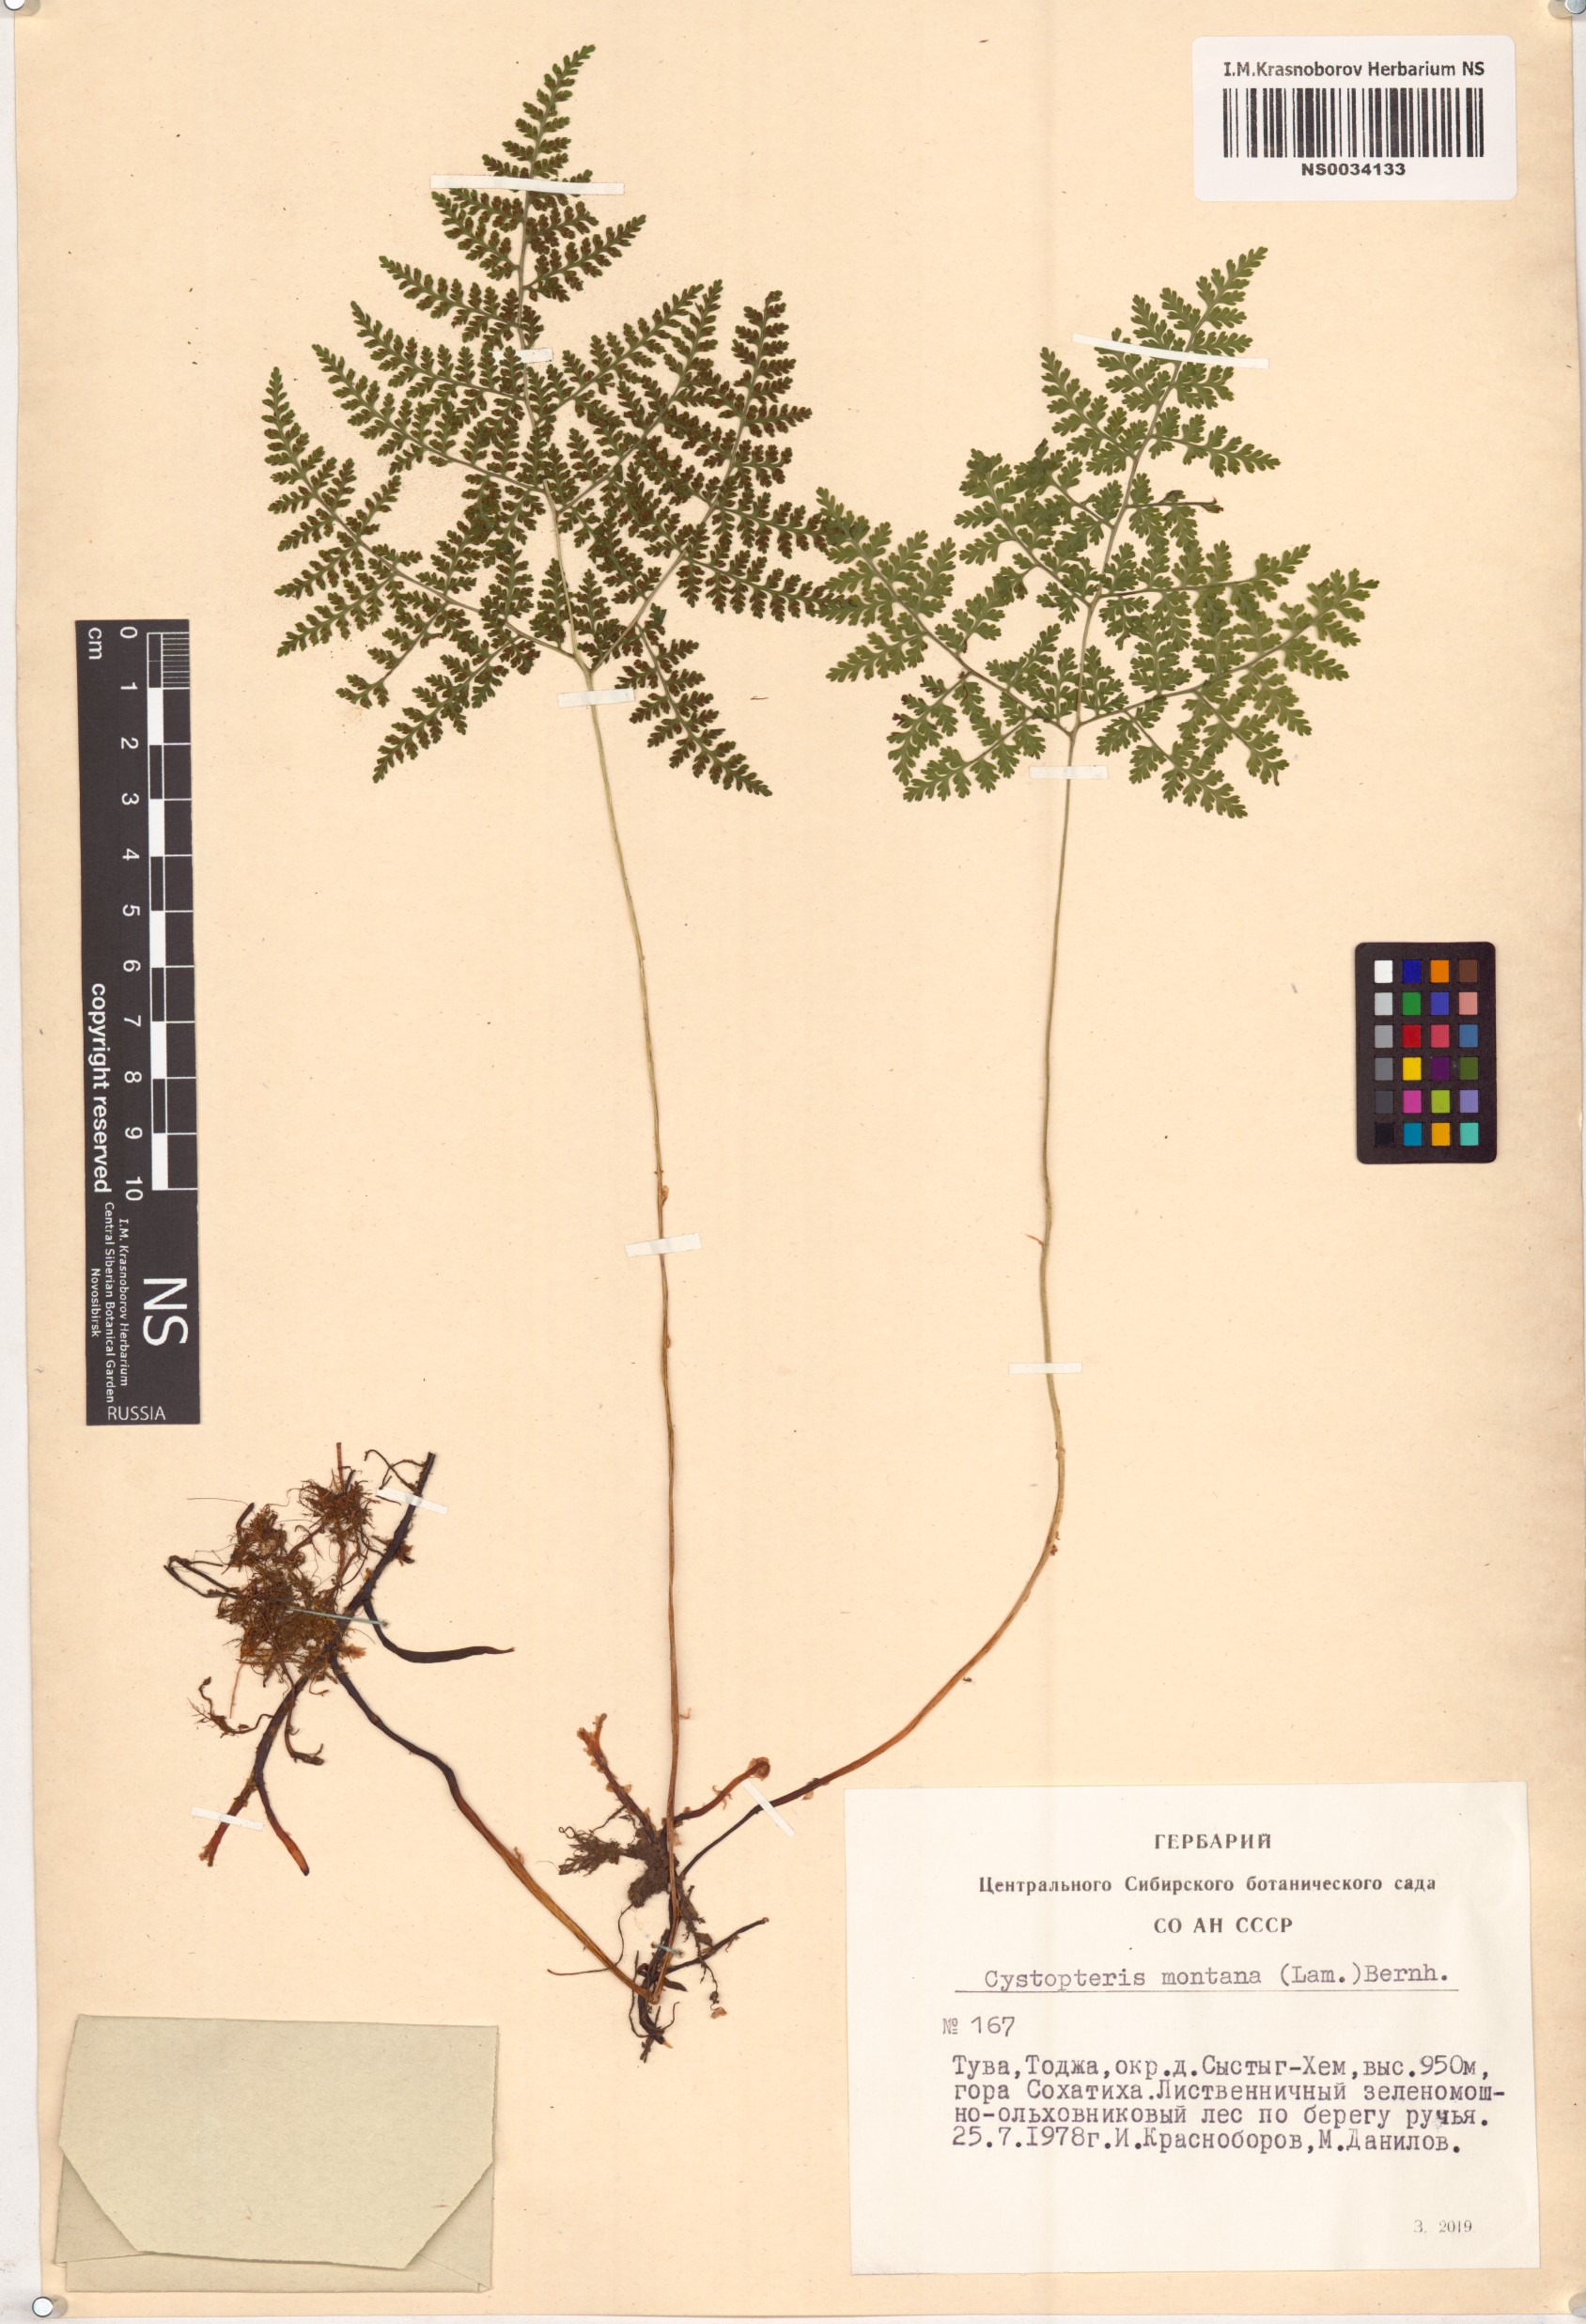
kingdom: Plantae
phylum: Tracheophyta
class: Polypodiopsida
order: Polypodiales
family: Cystopteridaceae
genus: Cystopteris
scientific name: Cystopteris montana
